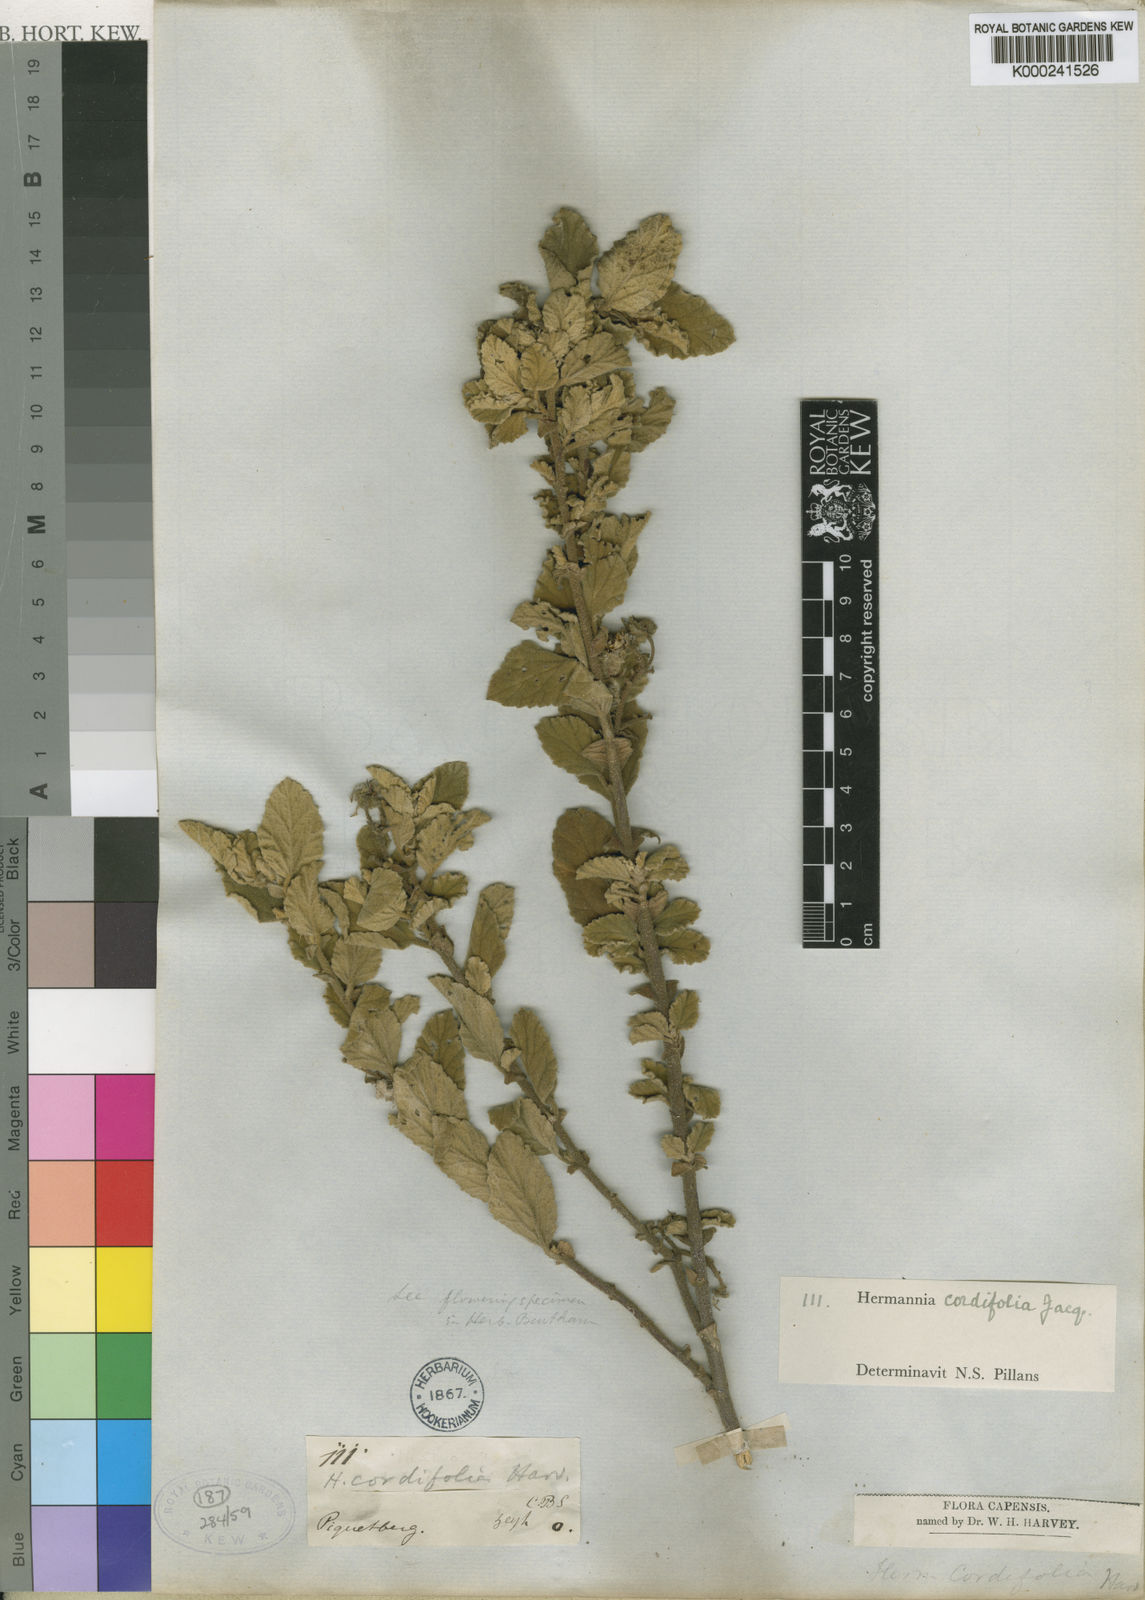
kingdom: Plantae
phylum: Tracheophyta
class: Magnoliopsida
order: Malvales
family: Malvaceae
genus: Hermannia
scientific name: Hermannia cordifolia
